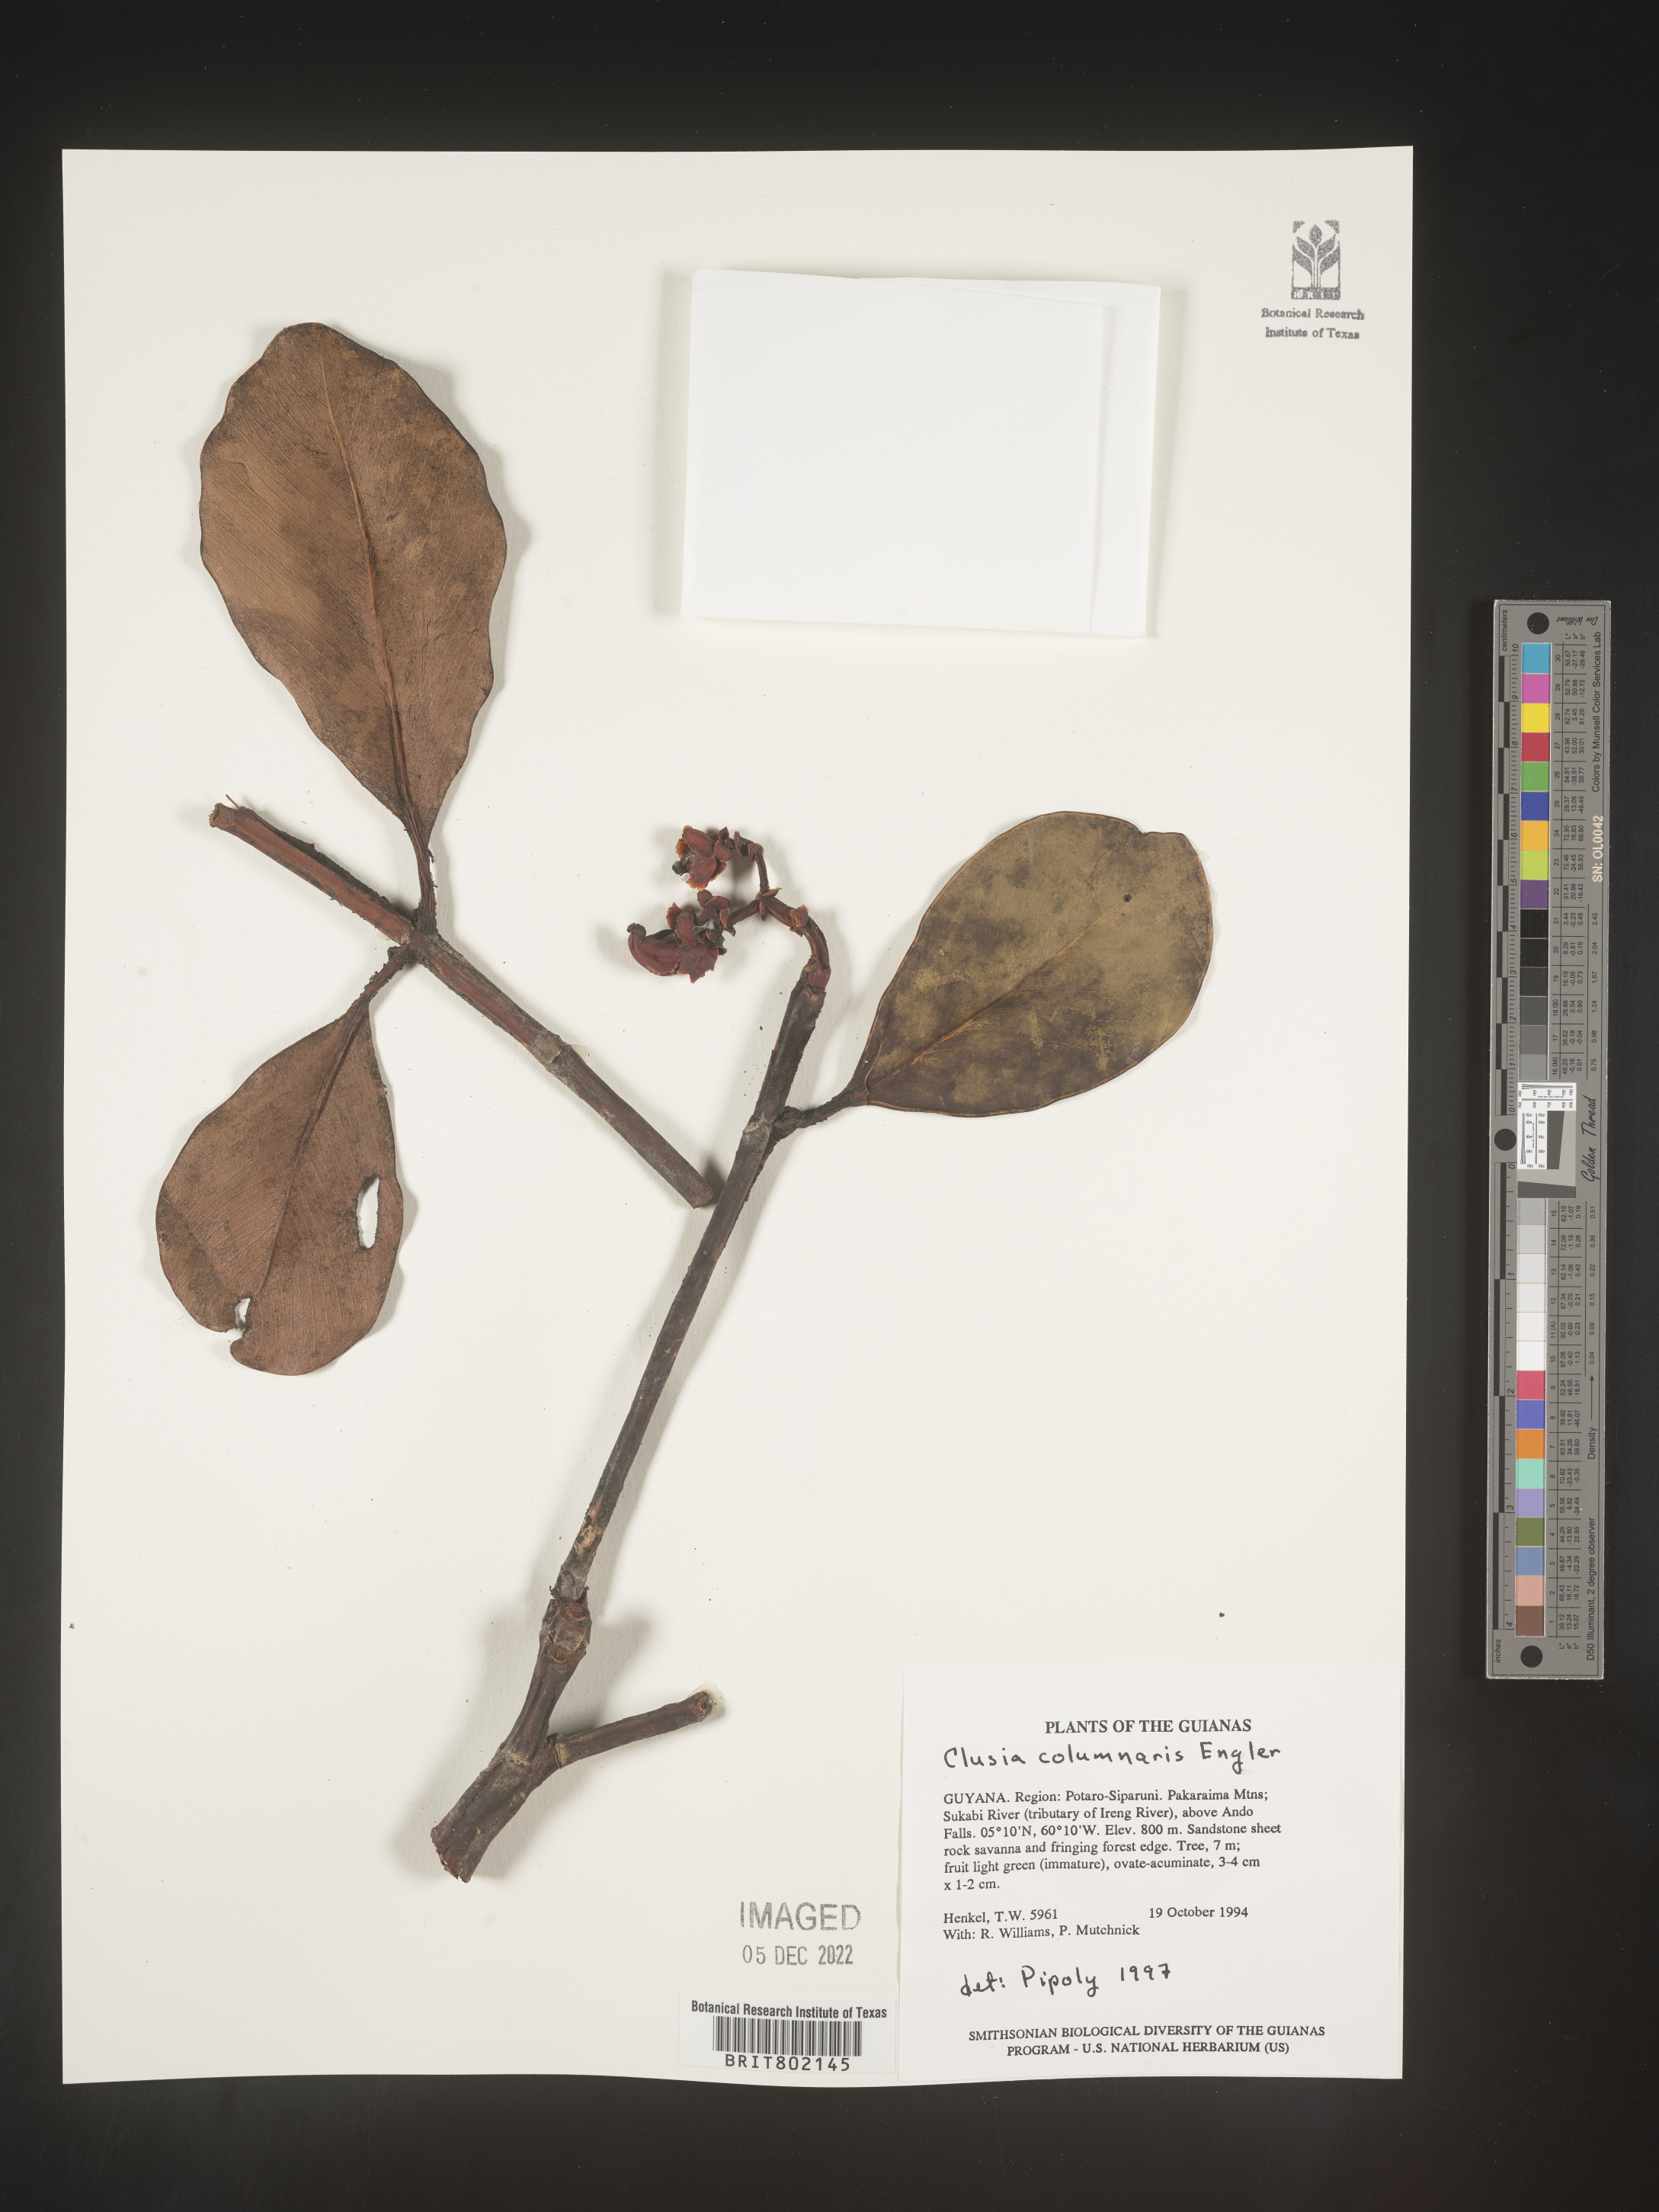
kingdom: Plantae
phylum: Tracheophyta
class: Magnoliopsida
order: Malpighiales
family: Clusiaceae
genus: Clusia
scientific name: Clusia columnaris
